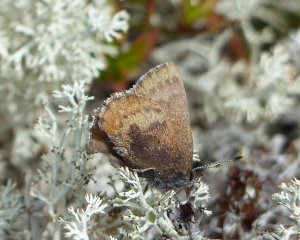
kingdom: Animalia
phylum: Arthropoda
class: Insecta
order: Lepidoptera
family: Lycaenidae
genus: Incisalia
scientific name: Incisalia irioides
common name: Brown Elfin
